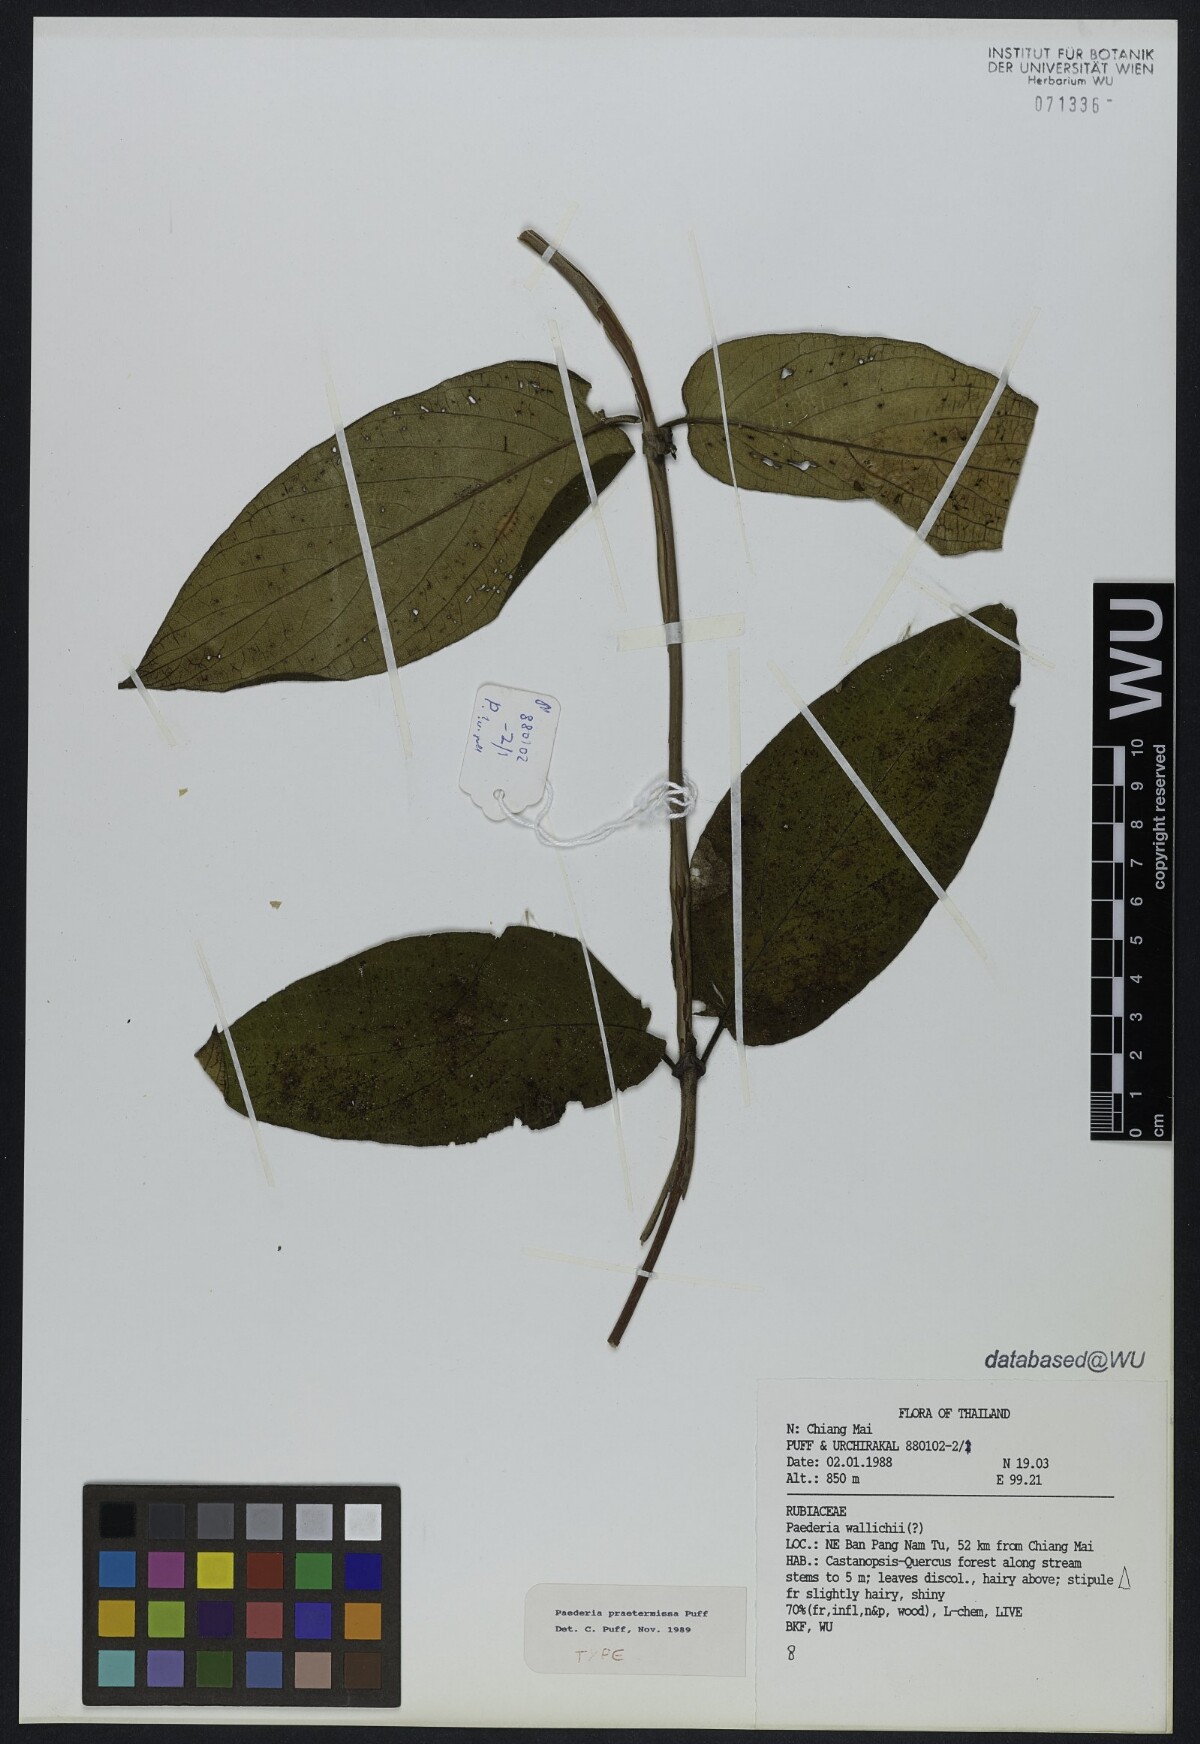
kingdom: Plantae
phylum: Tracheophyta
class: Magnoliopsida
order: Gentianales
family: Rubiaceae
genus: Paederia
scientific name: Paederia praetermissa
